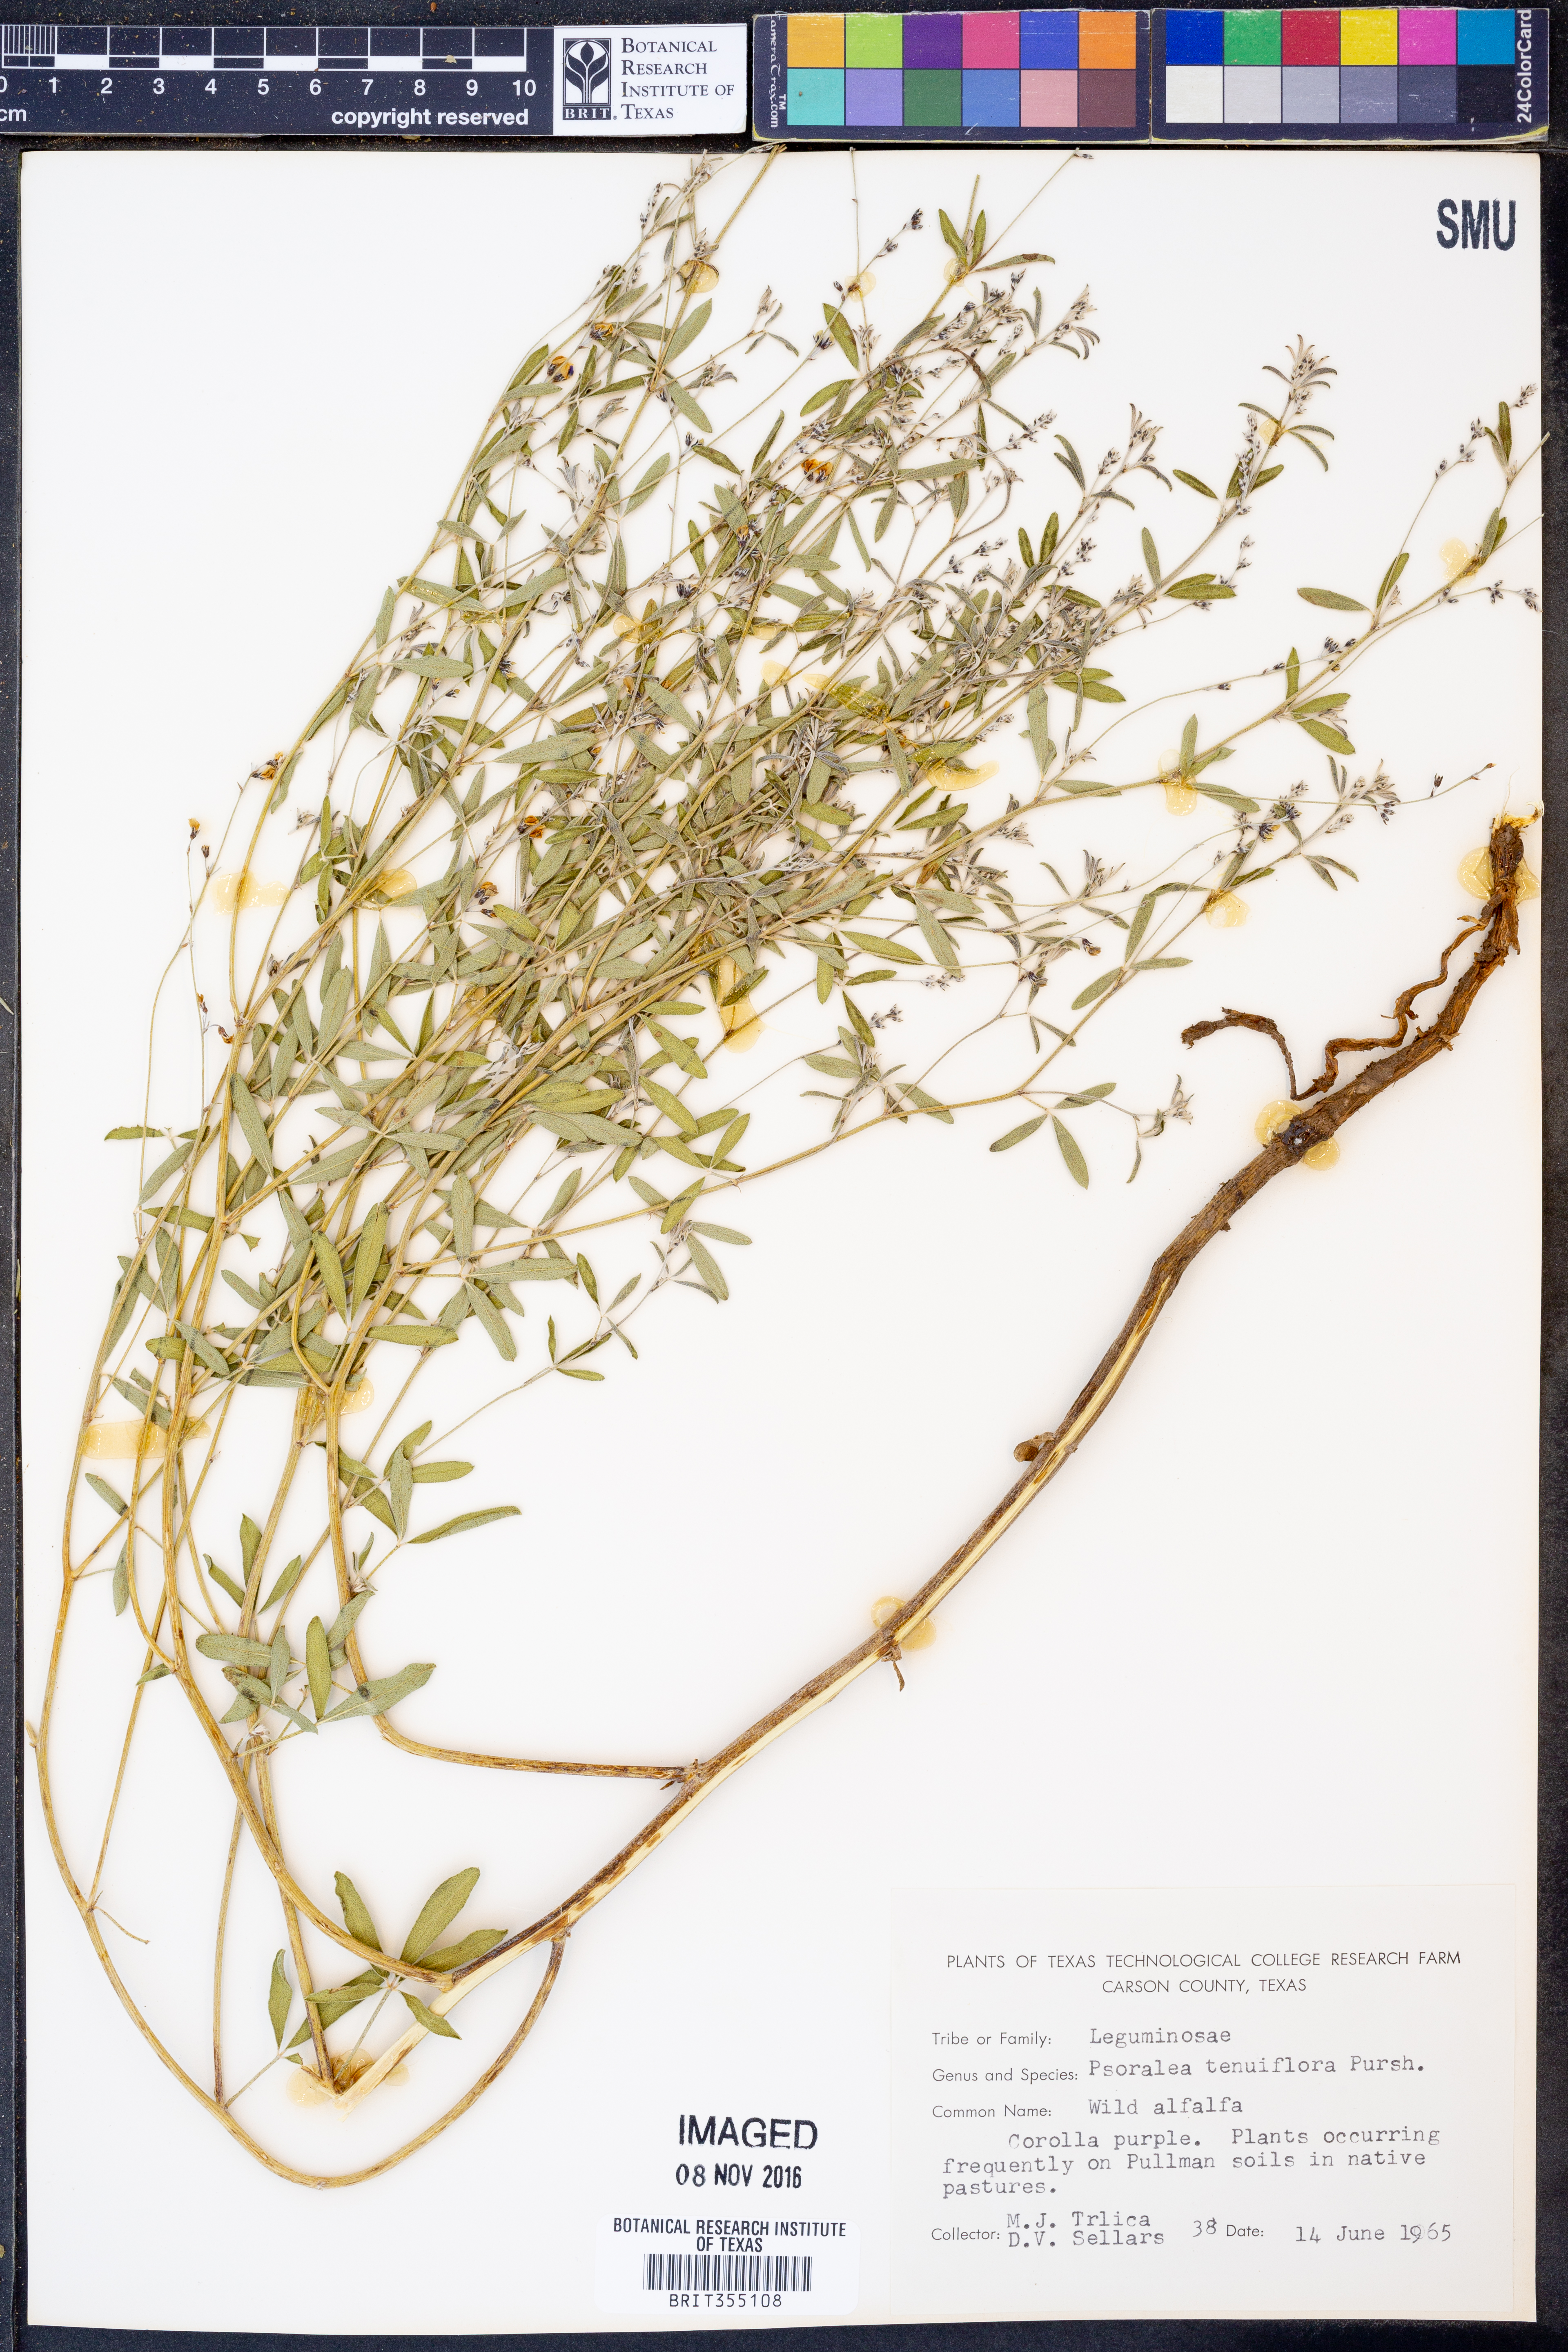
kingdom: Plantae
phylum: Tracheophyta
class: Magnoliopsida
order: Fabales
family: Fabaceae
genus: Pediomelum
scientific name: Pediomelum tenuiflorum
